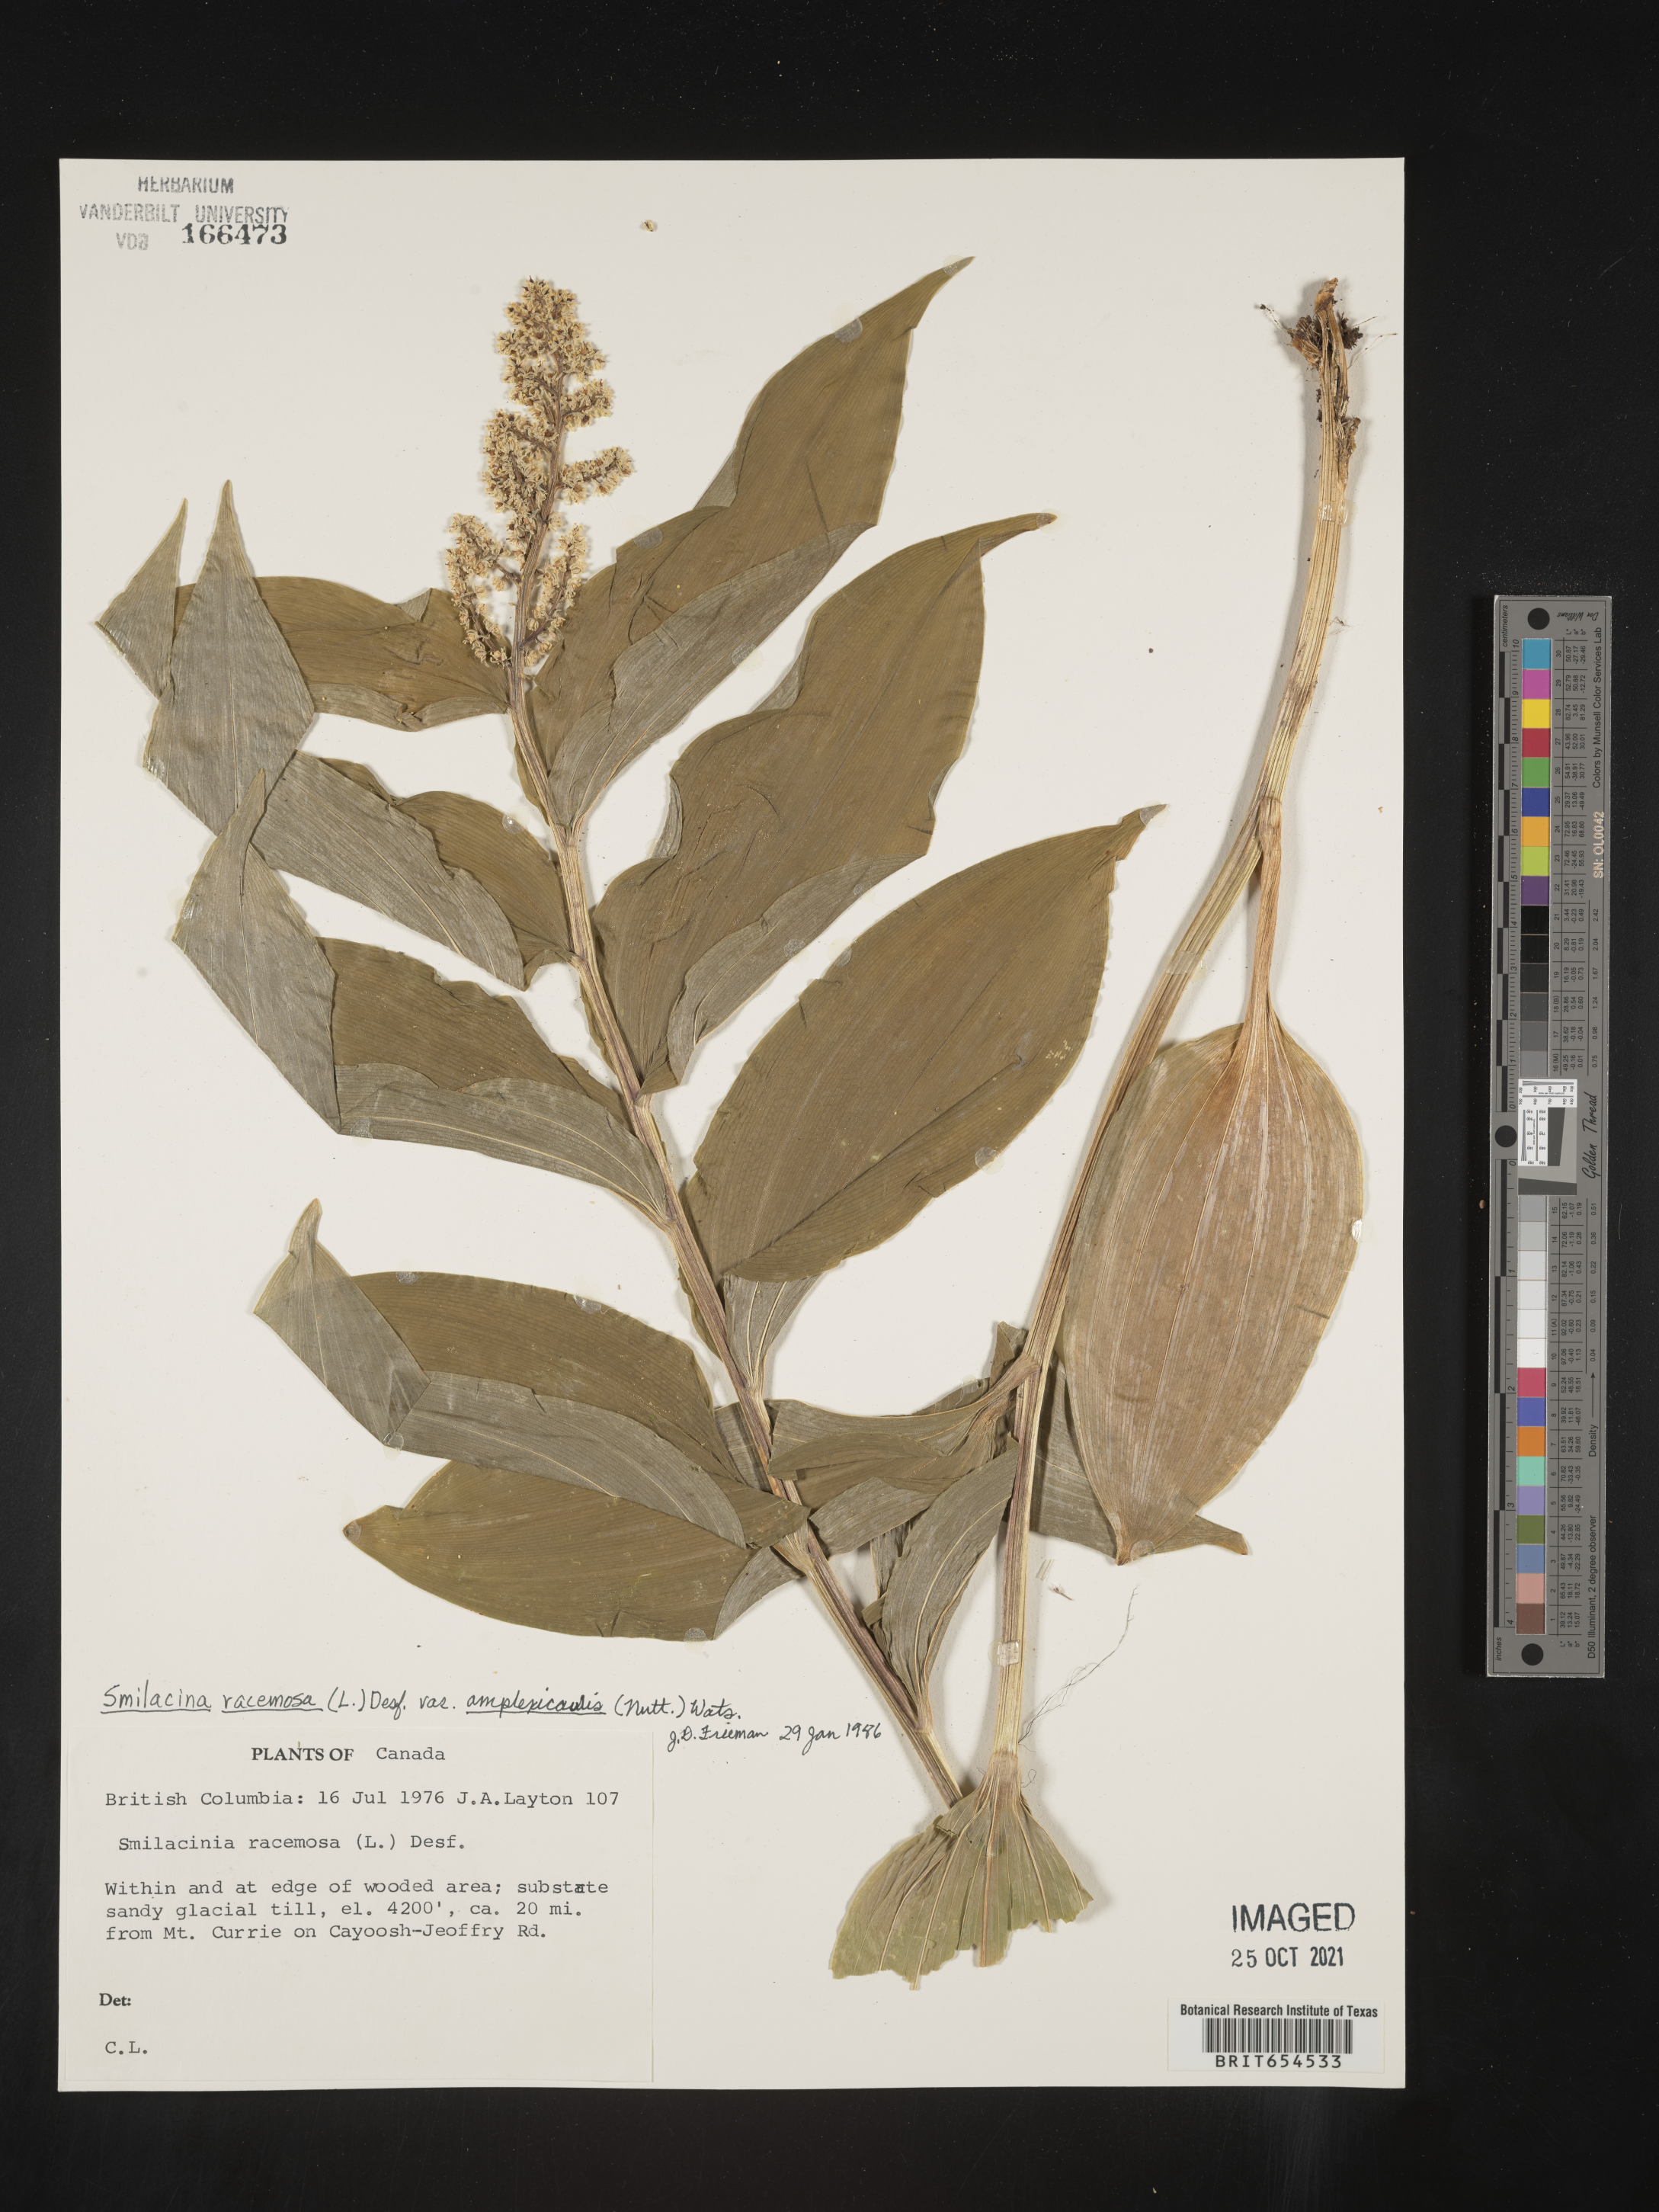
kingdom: Plantae
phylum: Tracheophyta
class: Liliopsida
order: Asparagales
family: Asparagaceae
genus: Maianthemum
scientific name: Maianthemum racemosum
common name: False spikenard
